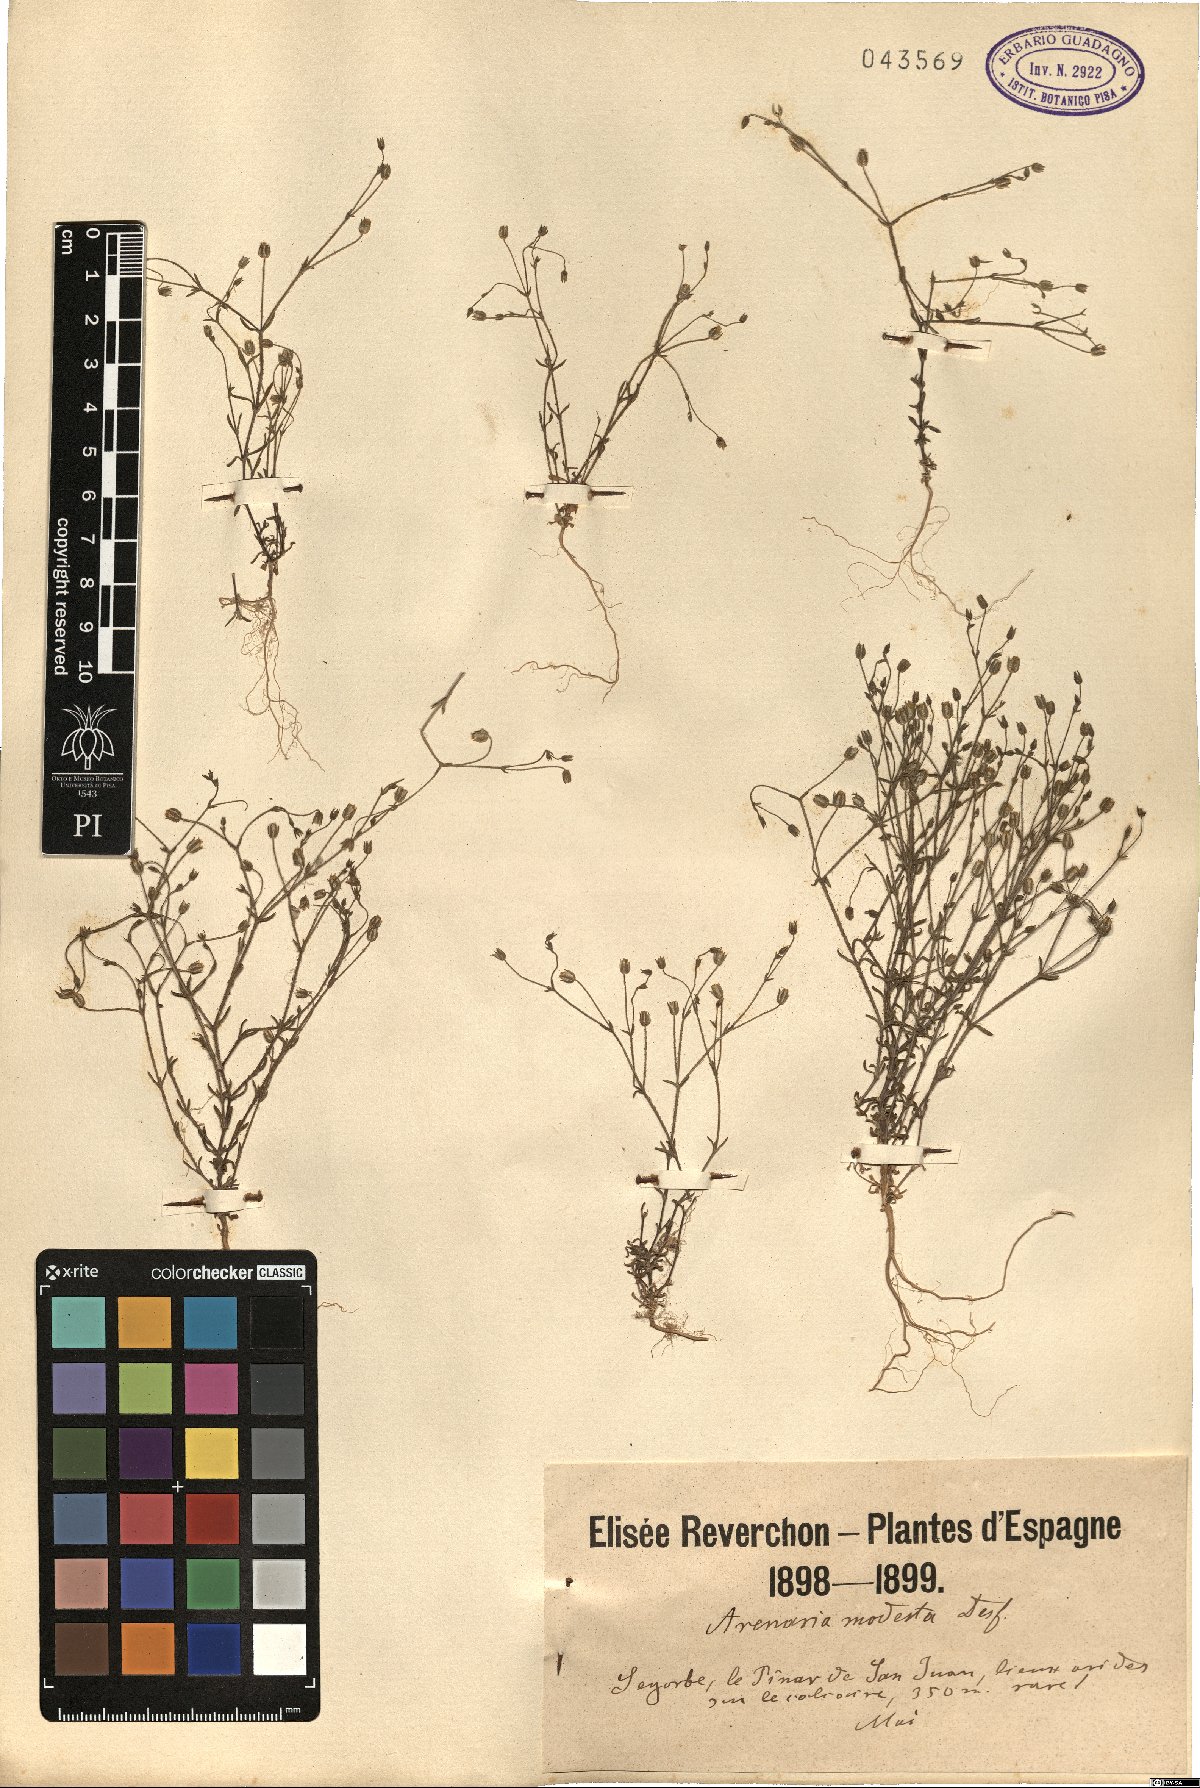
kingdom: Plantae
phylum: Tracheophyta
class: Magnoliopsida
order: Caryophyllales
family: Caryophyllaceae
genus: Arenaria
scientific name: Arenaria modesta
